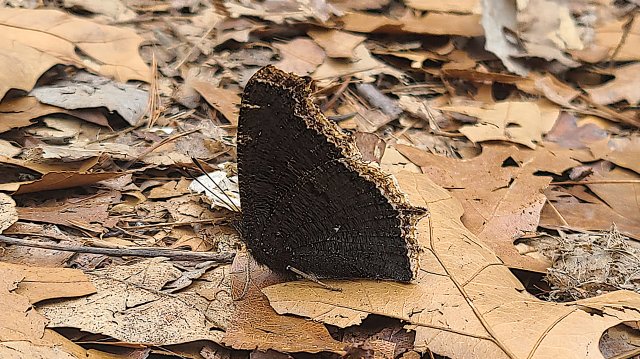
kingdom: Animalia
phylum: Arthropoda
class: Insecta
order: Lepidoptera
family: Nymphalidae
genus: Nymphalis
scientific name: Nymphalis antiopa
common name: Mourning Cloak
